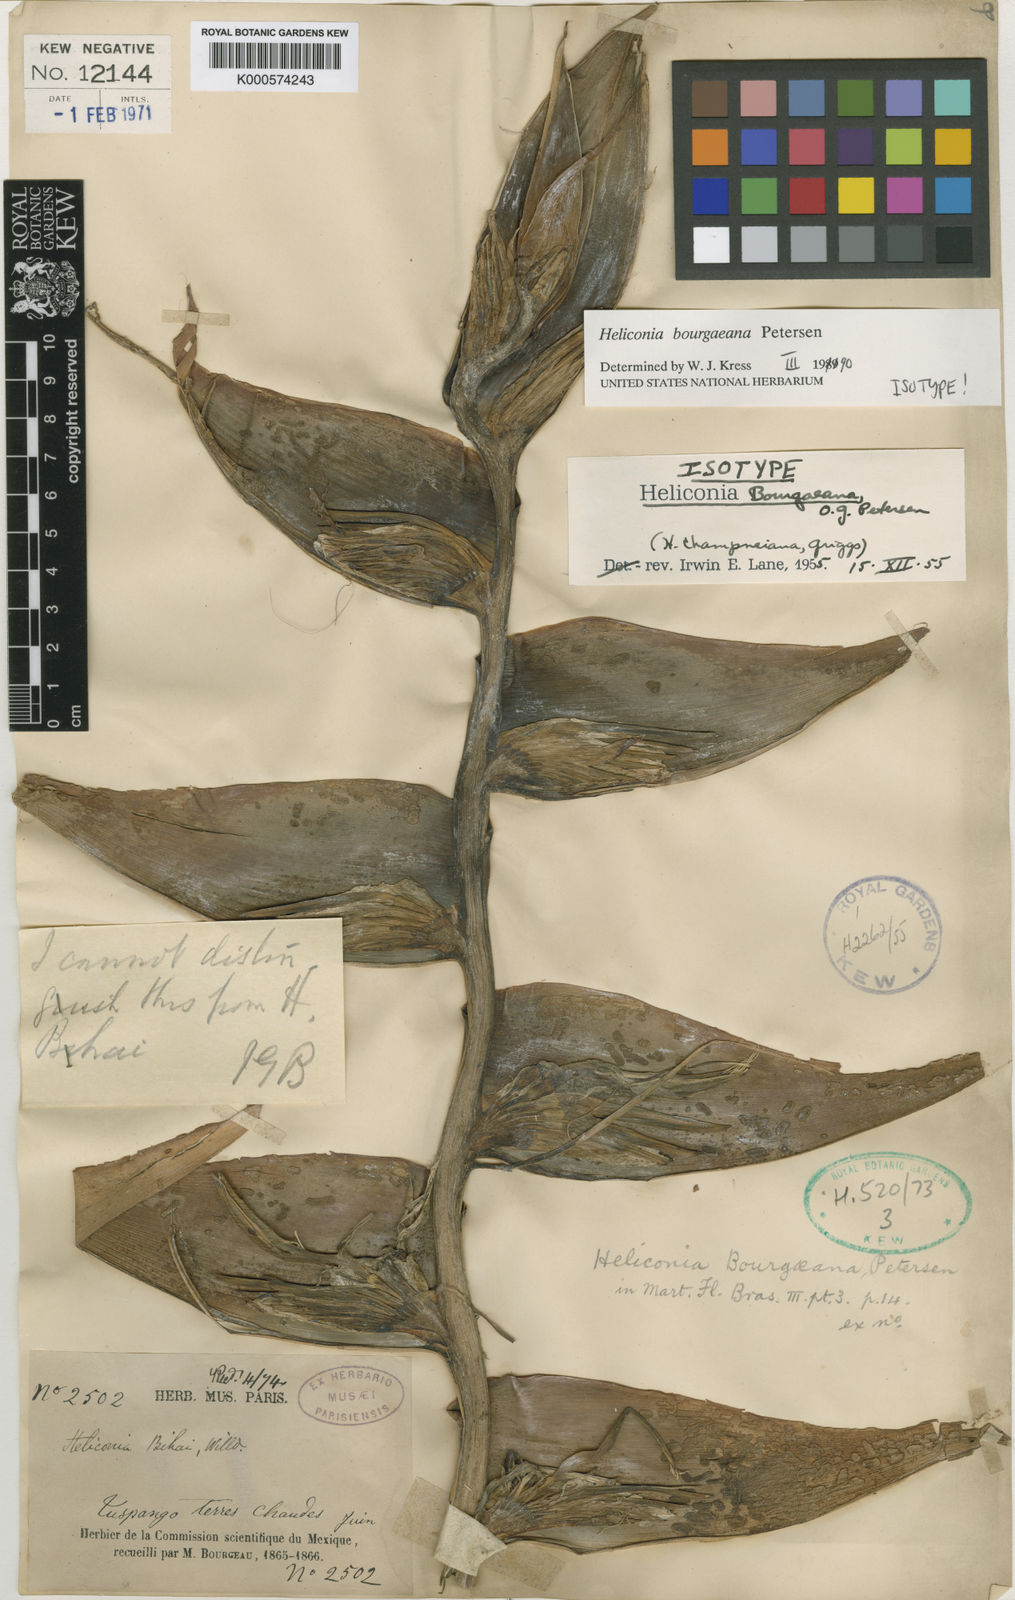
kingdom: Plantae
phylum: Tracheophyta
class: Liliopsida
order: Zingiberales
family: Heliconiaceae
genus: Heliconia
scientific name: Heliconia bourgaeana
